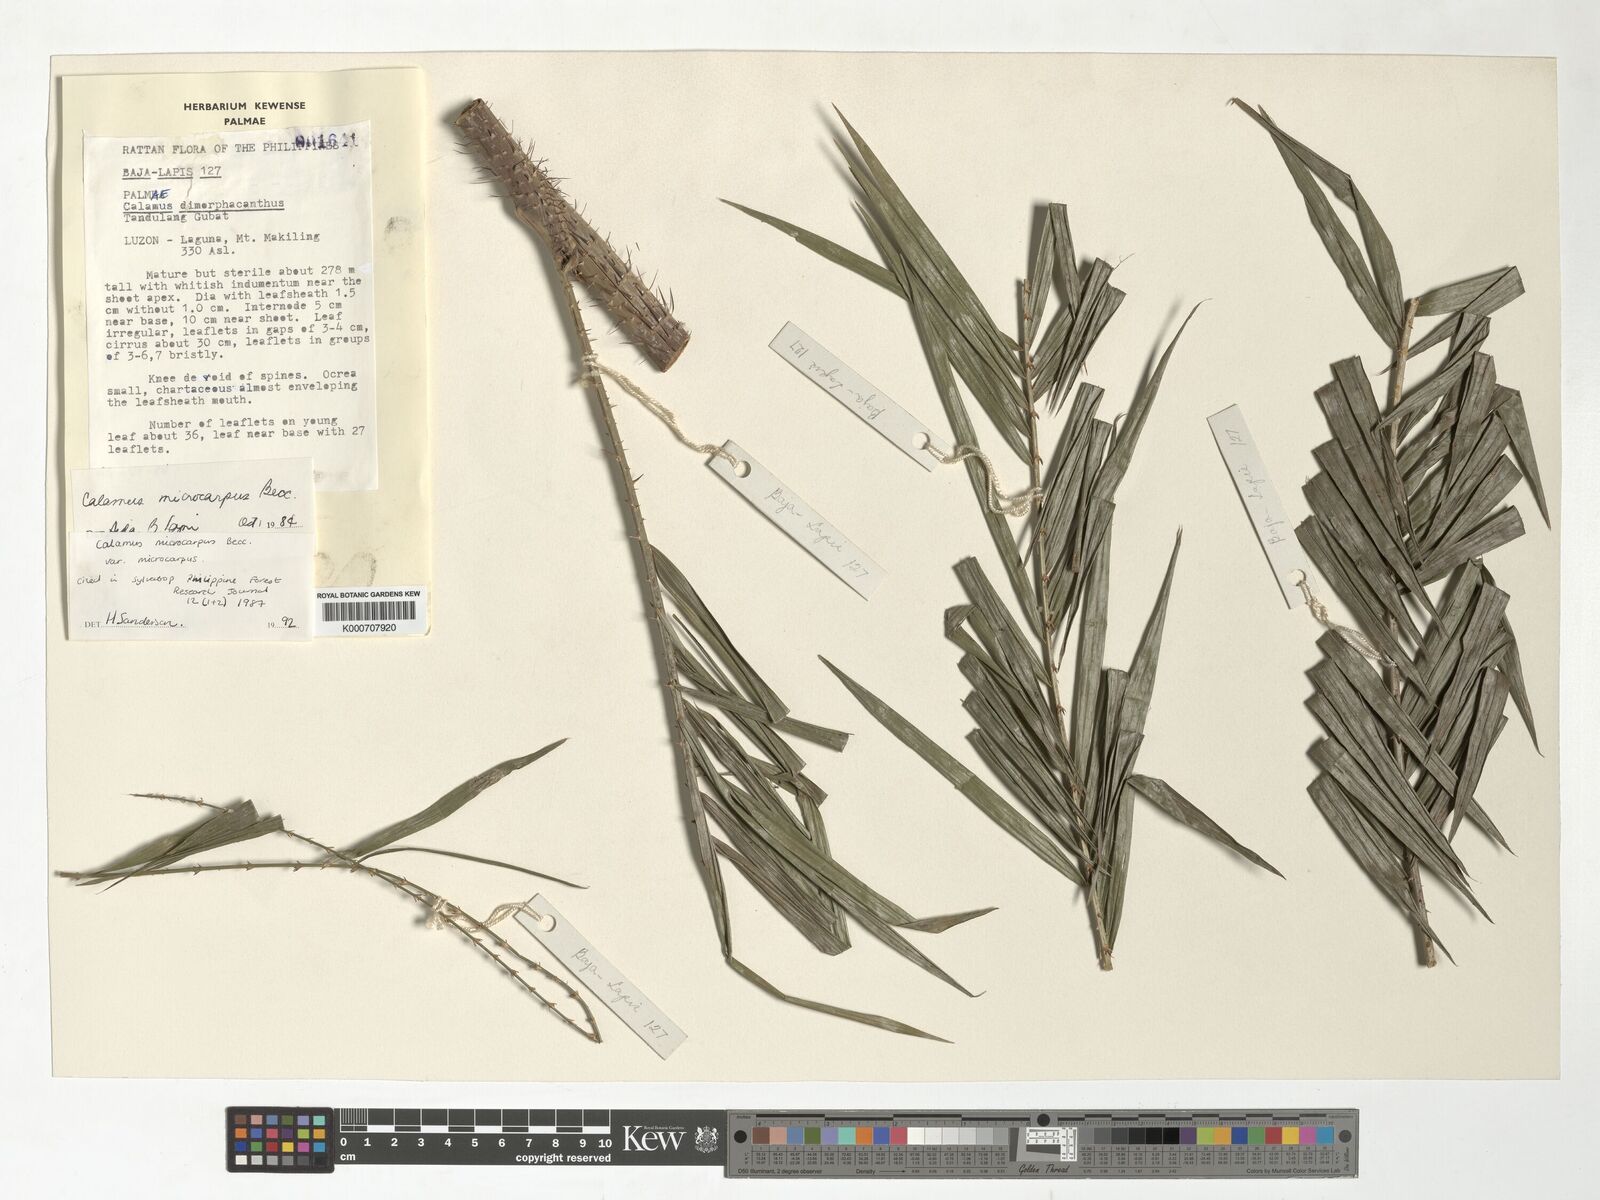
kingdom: Plantae
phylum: Tracheophyta
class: Liliopsida
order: Arecales
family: Arecaceae
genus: Calamus
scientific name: Calamus siphonospathus
